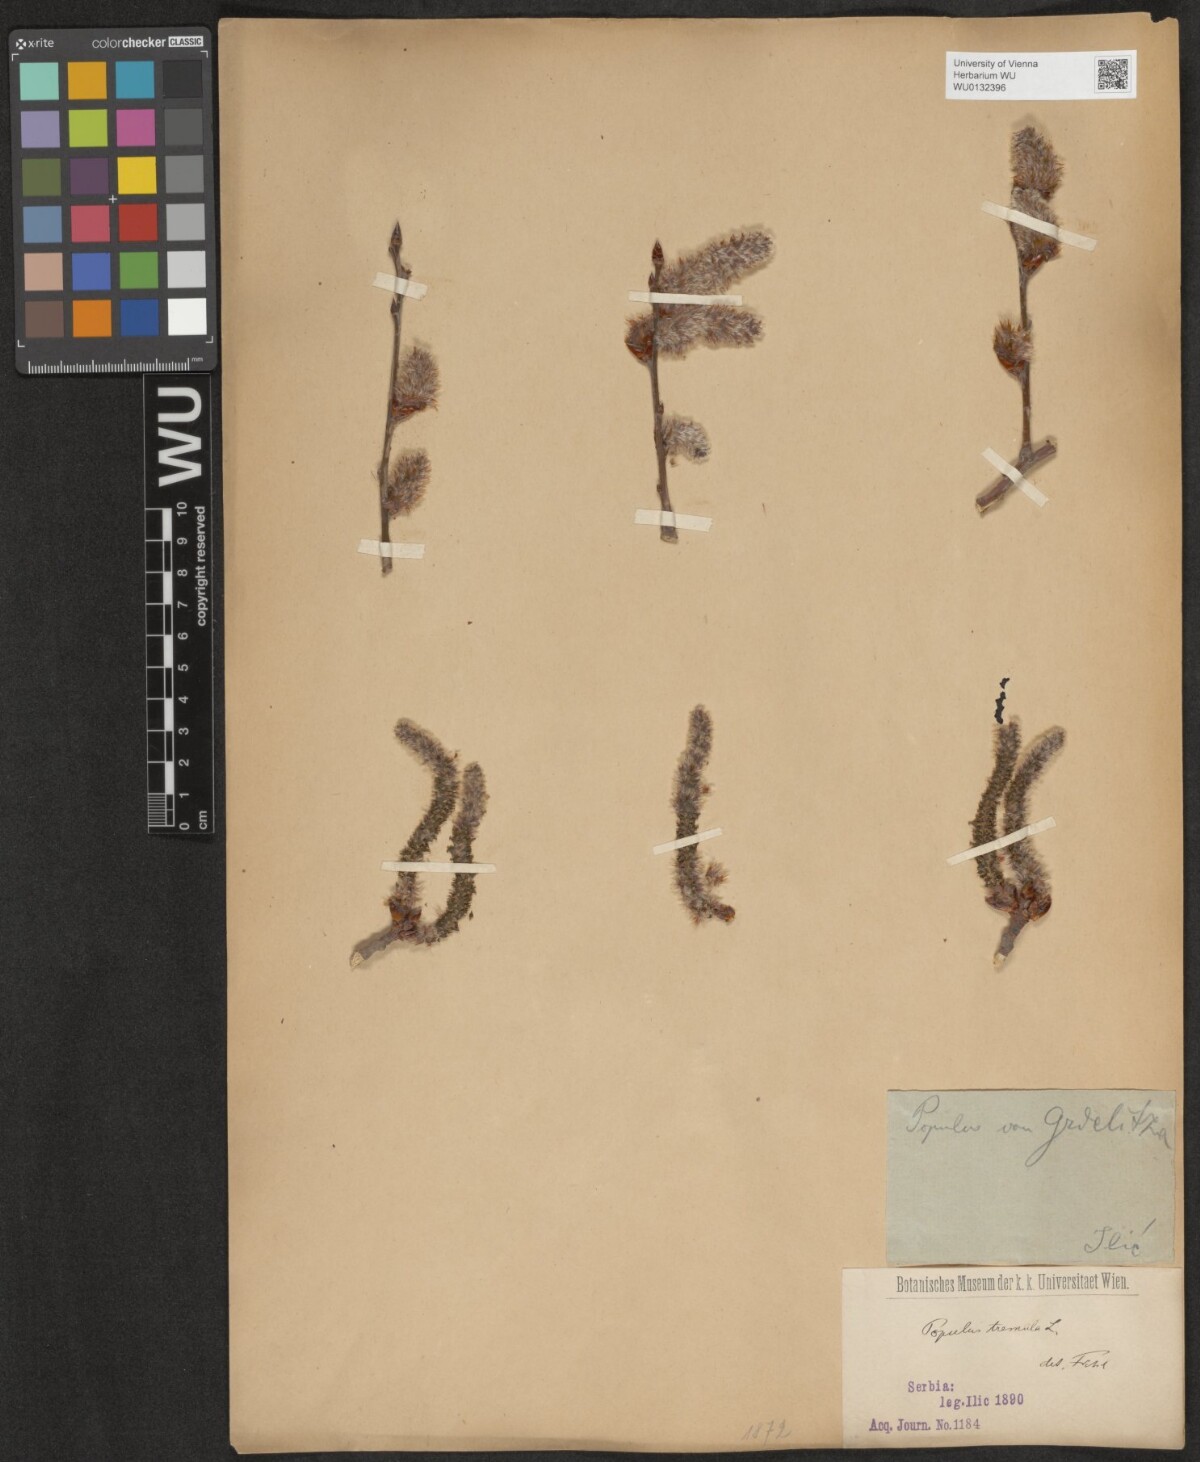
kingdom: Plantae
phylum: Tracheophyta
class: Magnoliopsida
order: Malpighiales
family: Salicaceae
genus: Populus
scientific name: Populus tremula
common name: European aspen
